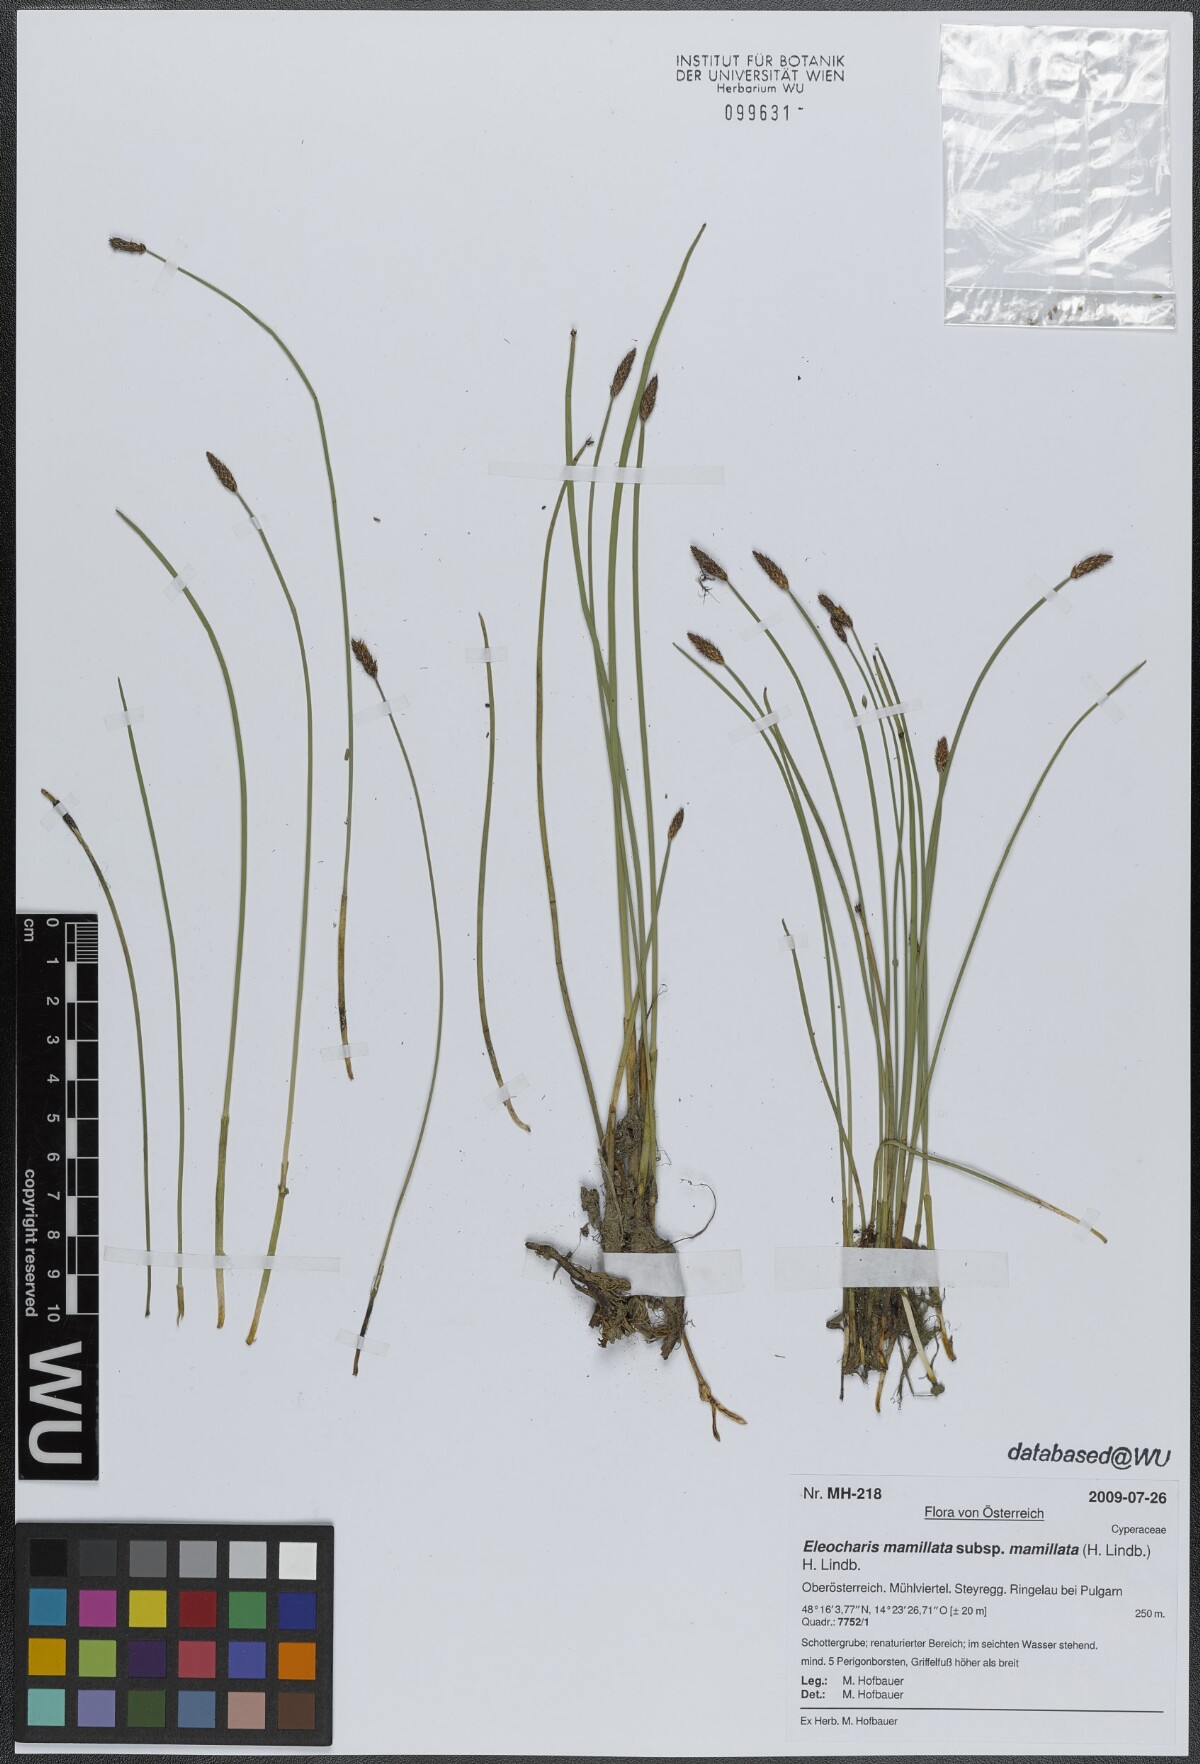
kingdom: Plantae
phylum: Tracheophyta
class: Liliopsida
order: Poales
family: Cyperaceae
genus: Eleocharis
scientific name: Eleocharis mamillata
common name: Northern spike-rush
